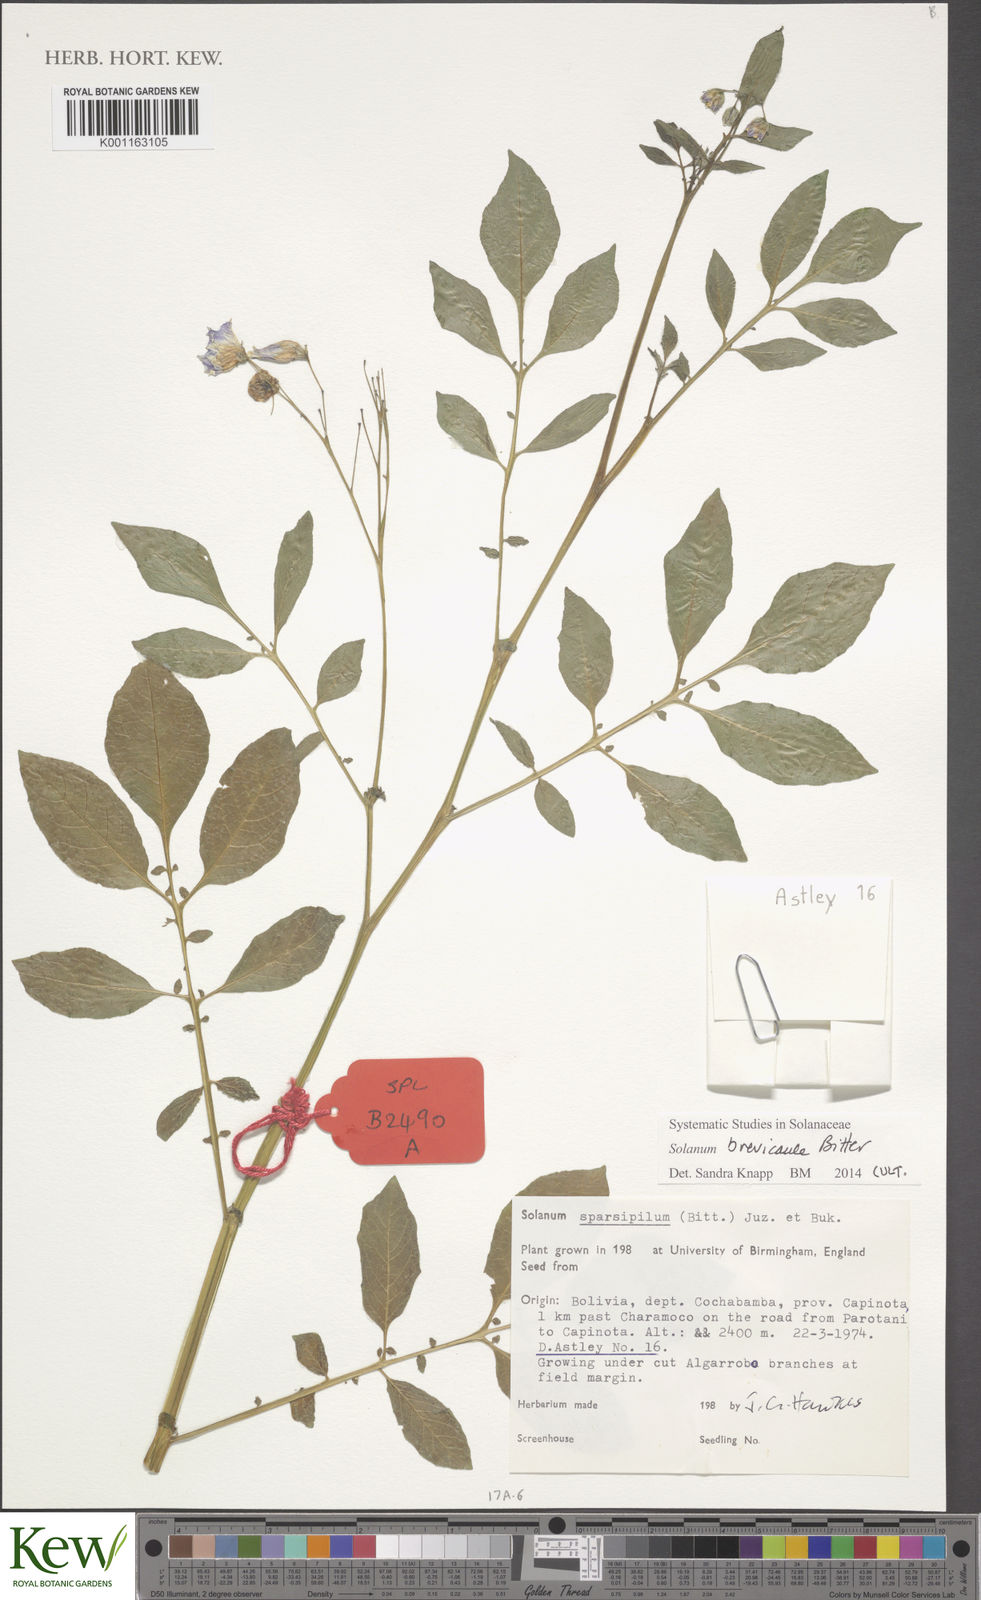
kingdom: Plantae
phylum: Tracheophyta
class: Magnoliopsida
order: Solanales
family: Solanaceae
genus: Solanum
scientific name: Solanum brevicaule
